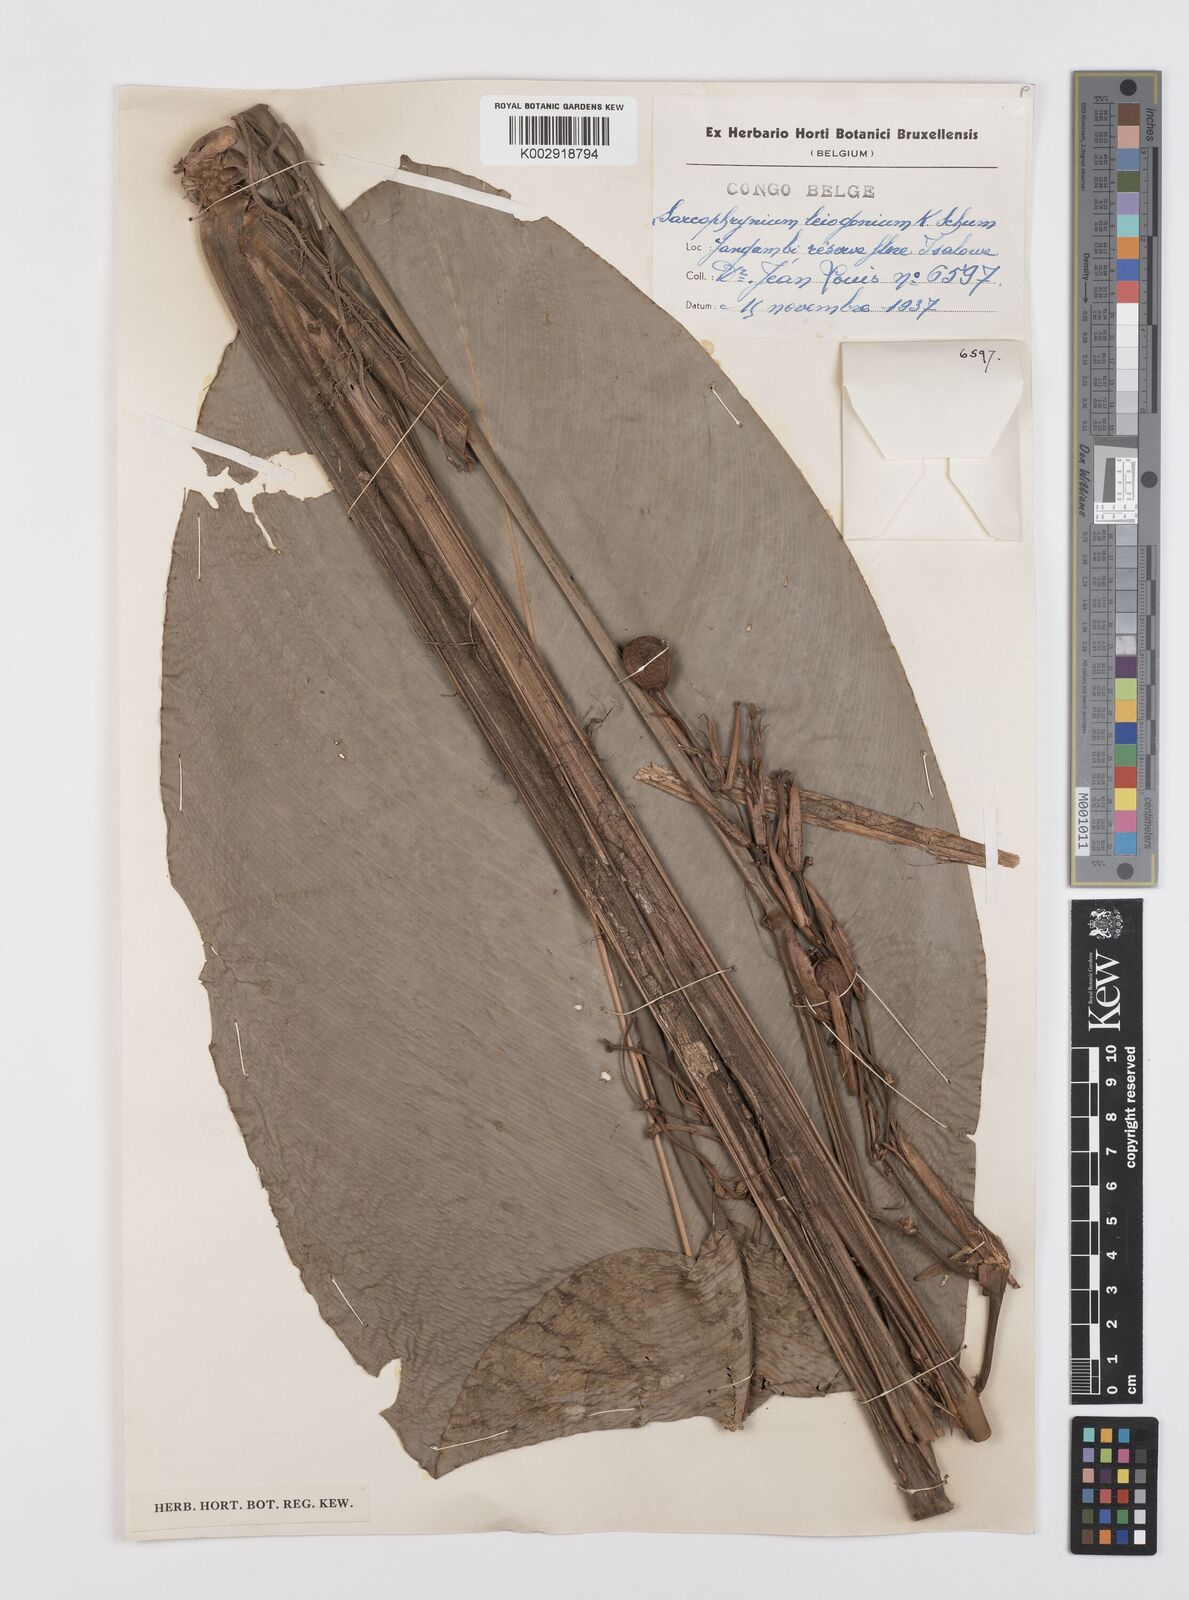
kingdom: Plantae
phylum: Tracheophyta
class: Liliopsida
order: Zingiberales
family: Marantaceae
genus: Sarcophrynium
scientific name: Sarcophrynium schweinfurthianum
